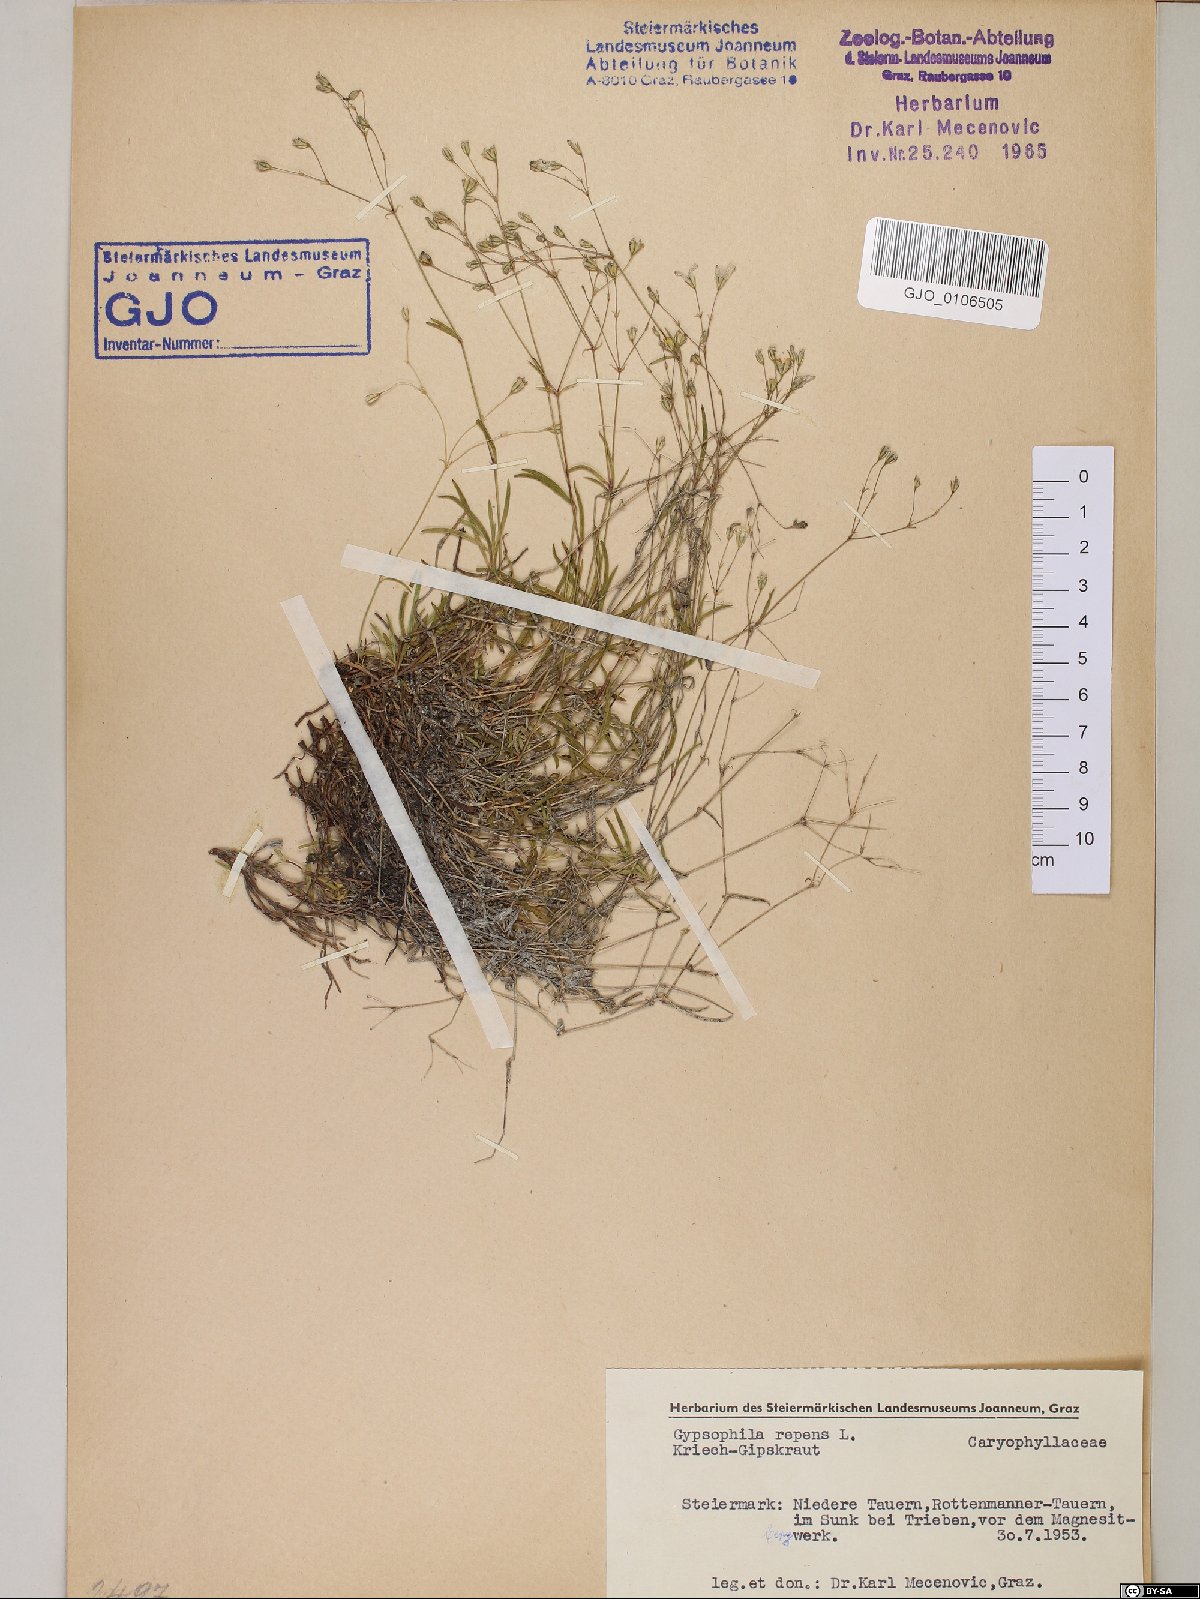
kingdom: Plantae
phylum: Tracheophyta
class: Magnoliopsida
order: Caryophyllales
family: Caryophyllaceae
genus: Gypsophila
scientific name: Gypsophila repens
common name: Creeping baby's-breath
